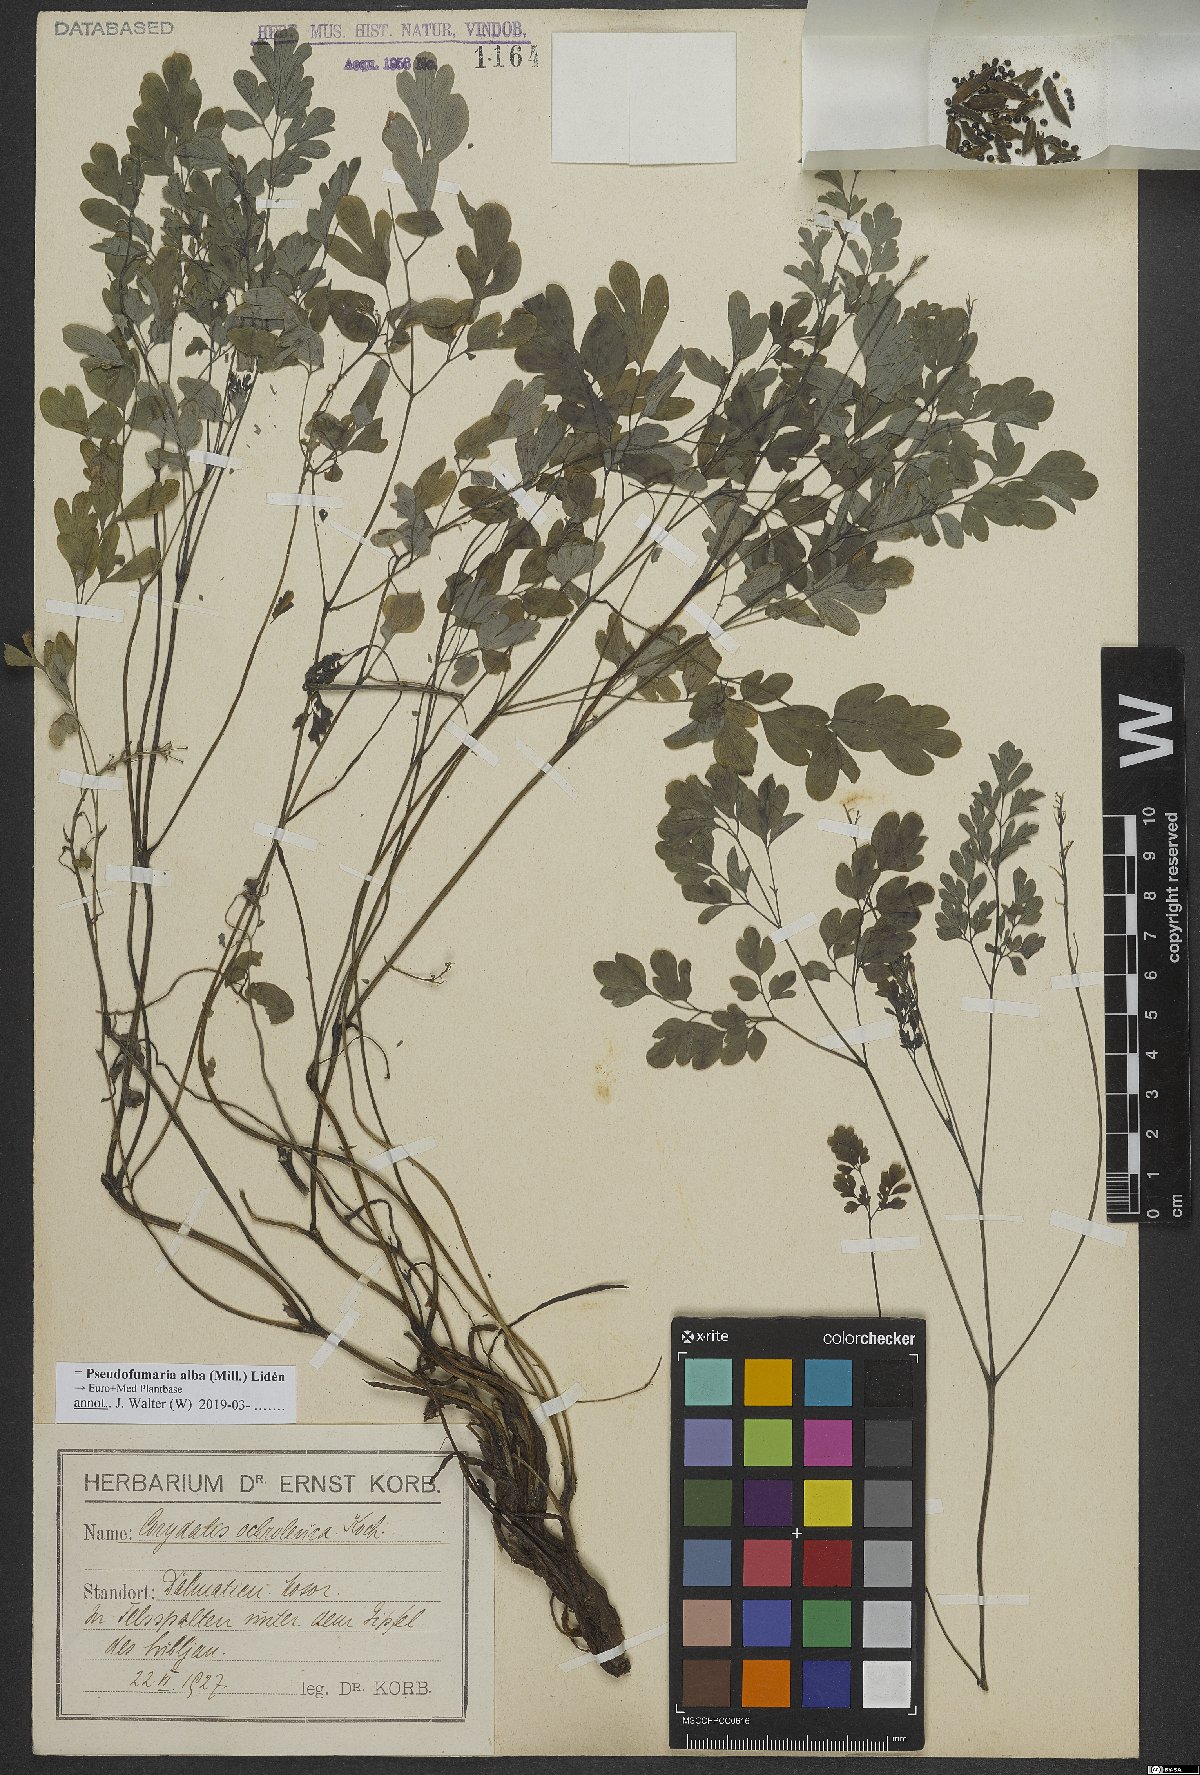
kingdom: Plantae
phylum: Tracheophyta
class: Magnoliopsida
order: Ranunculales
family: Papaveraceae
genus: Pseudofumaria
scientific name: Pseudofumaria alba
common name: Pale corydalis
